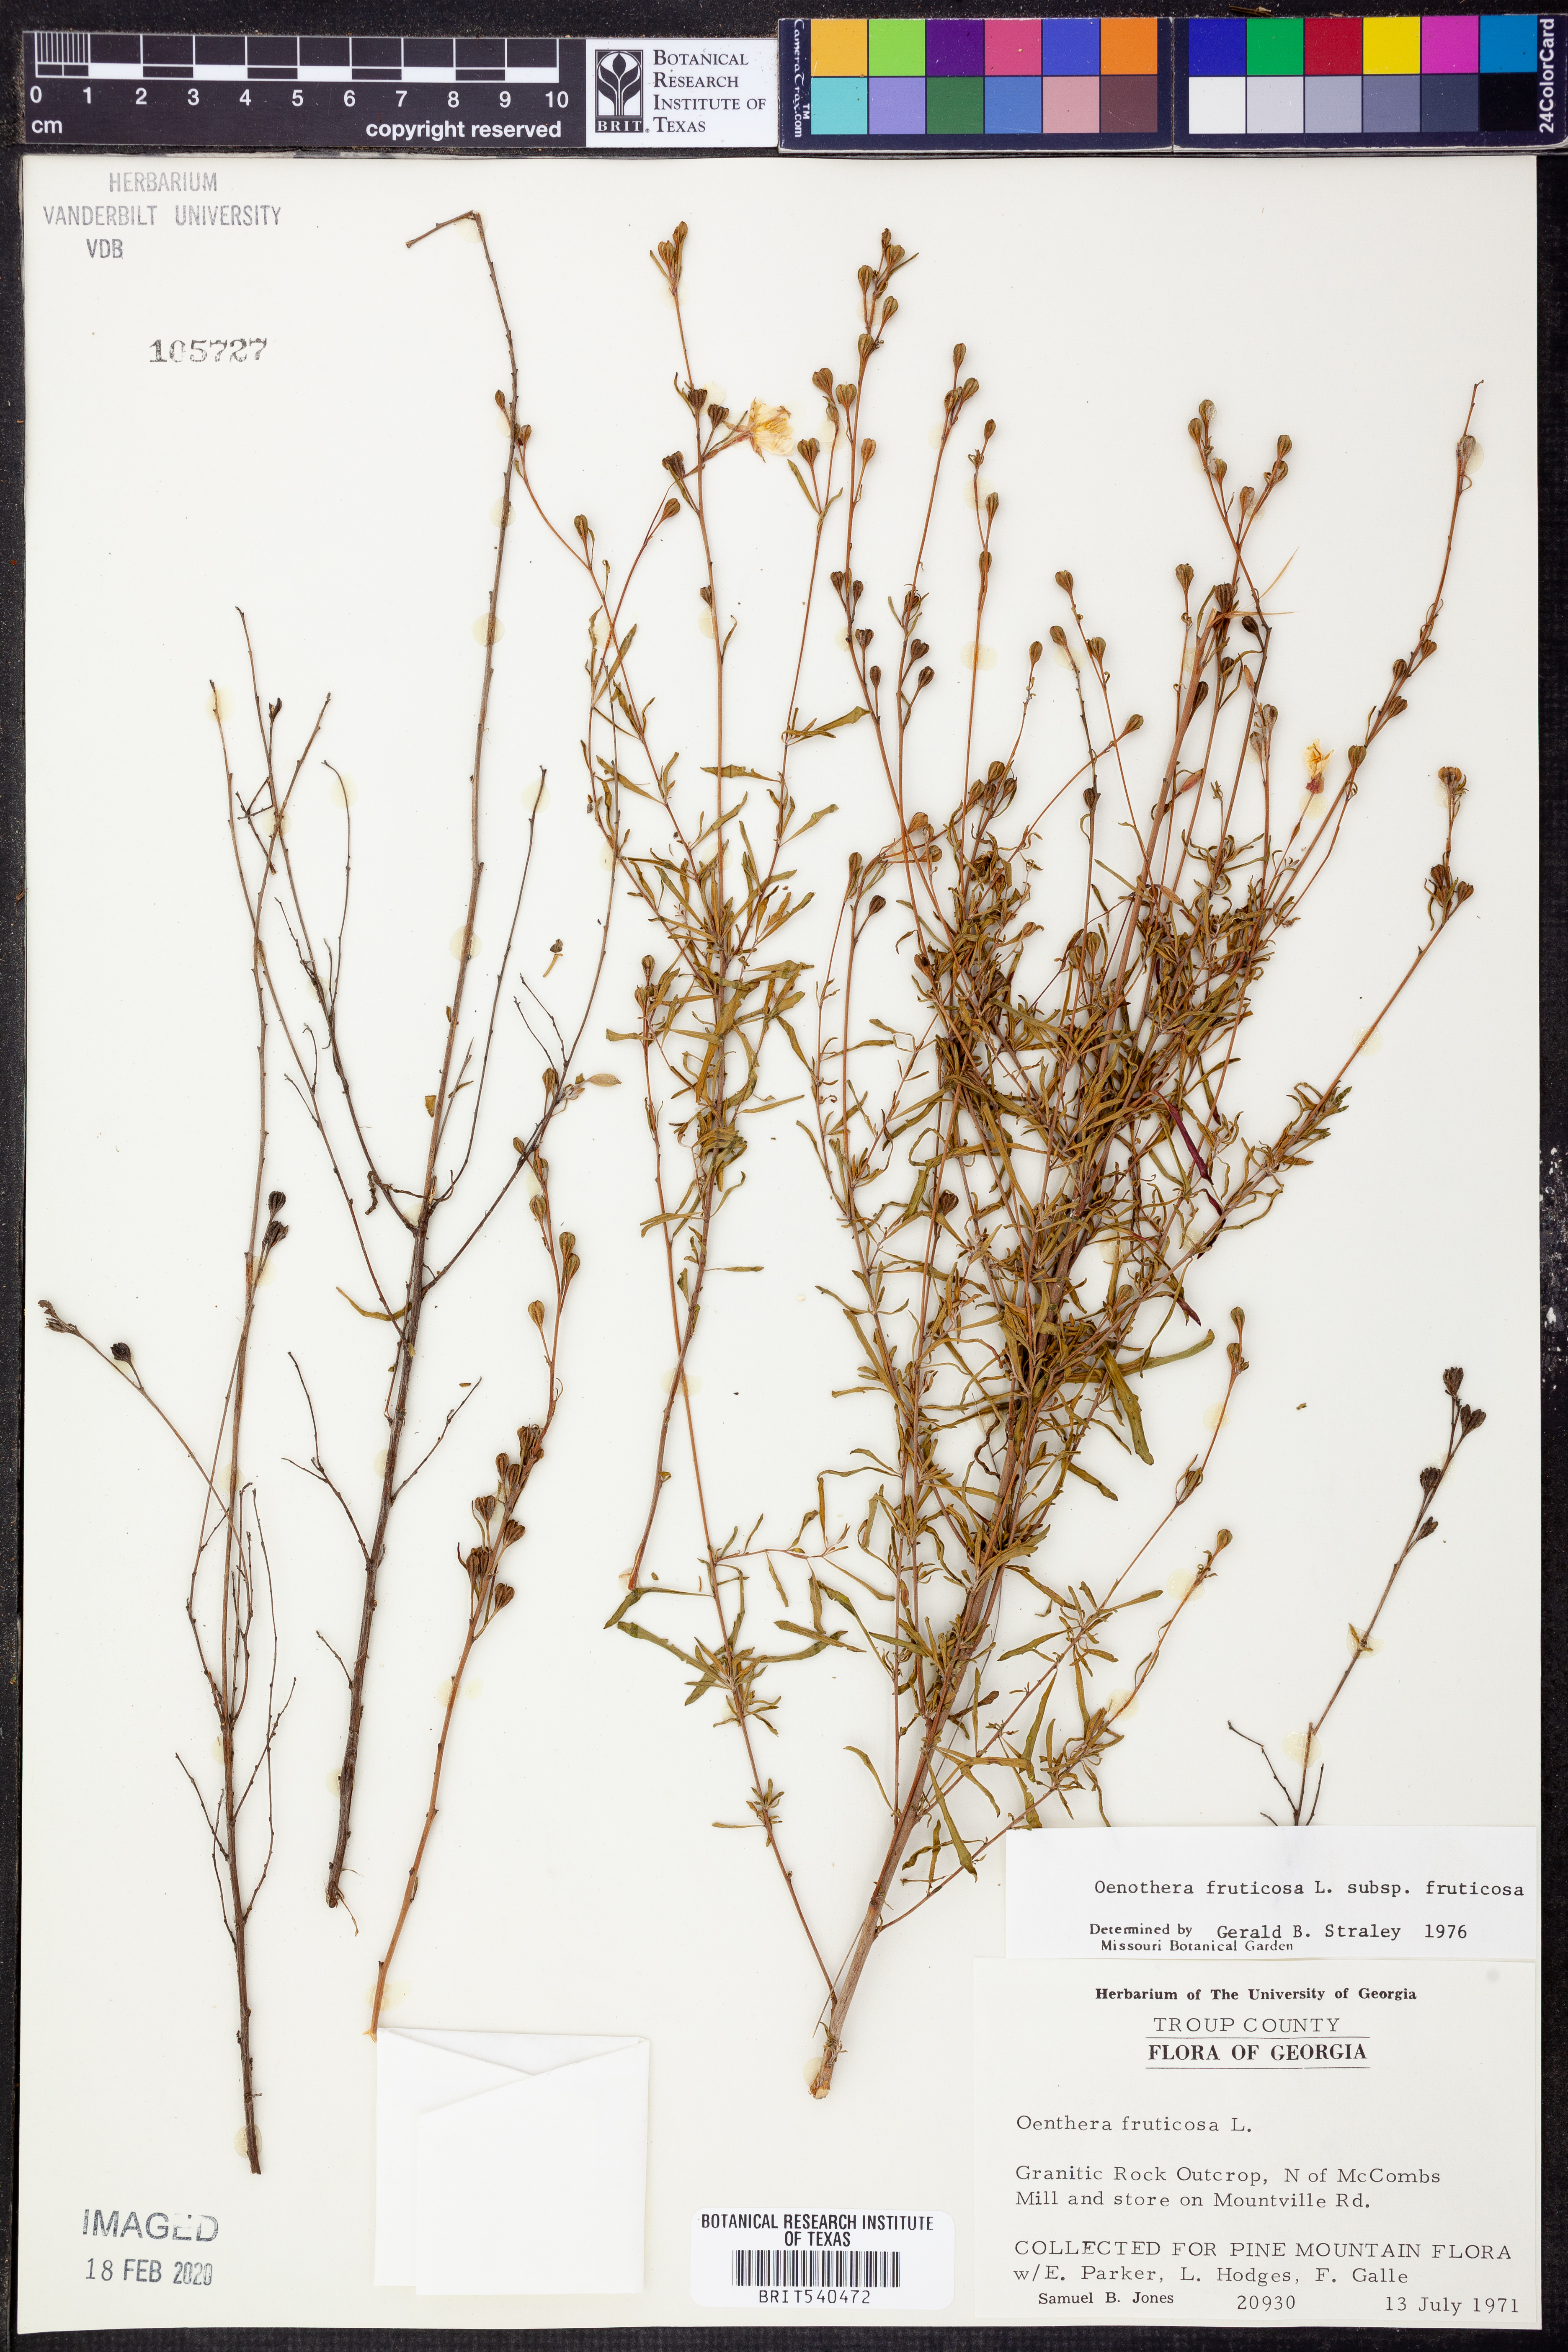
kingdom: Plantae
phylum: Tracheophyta
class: Magnoliopsida
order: Myrtales
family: Onagraceae
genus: Oenothera
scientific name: Oenothera fruticosa
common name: Southern sundrops
